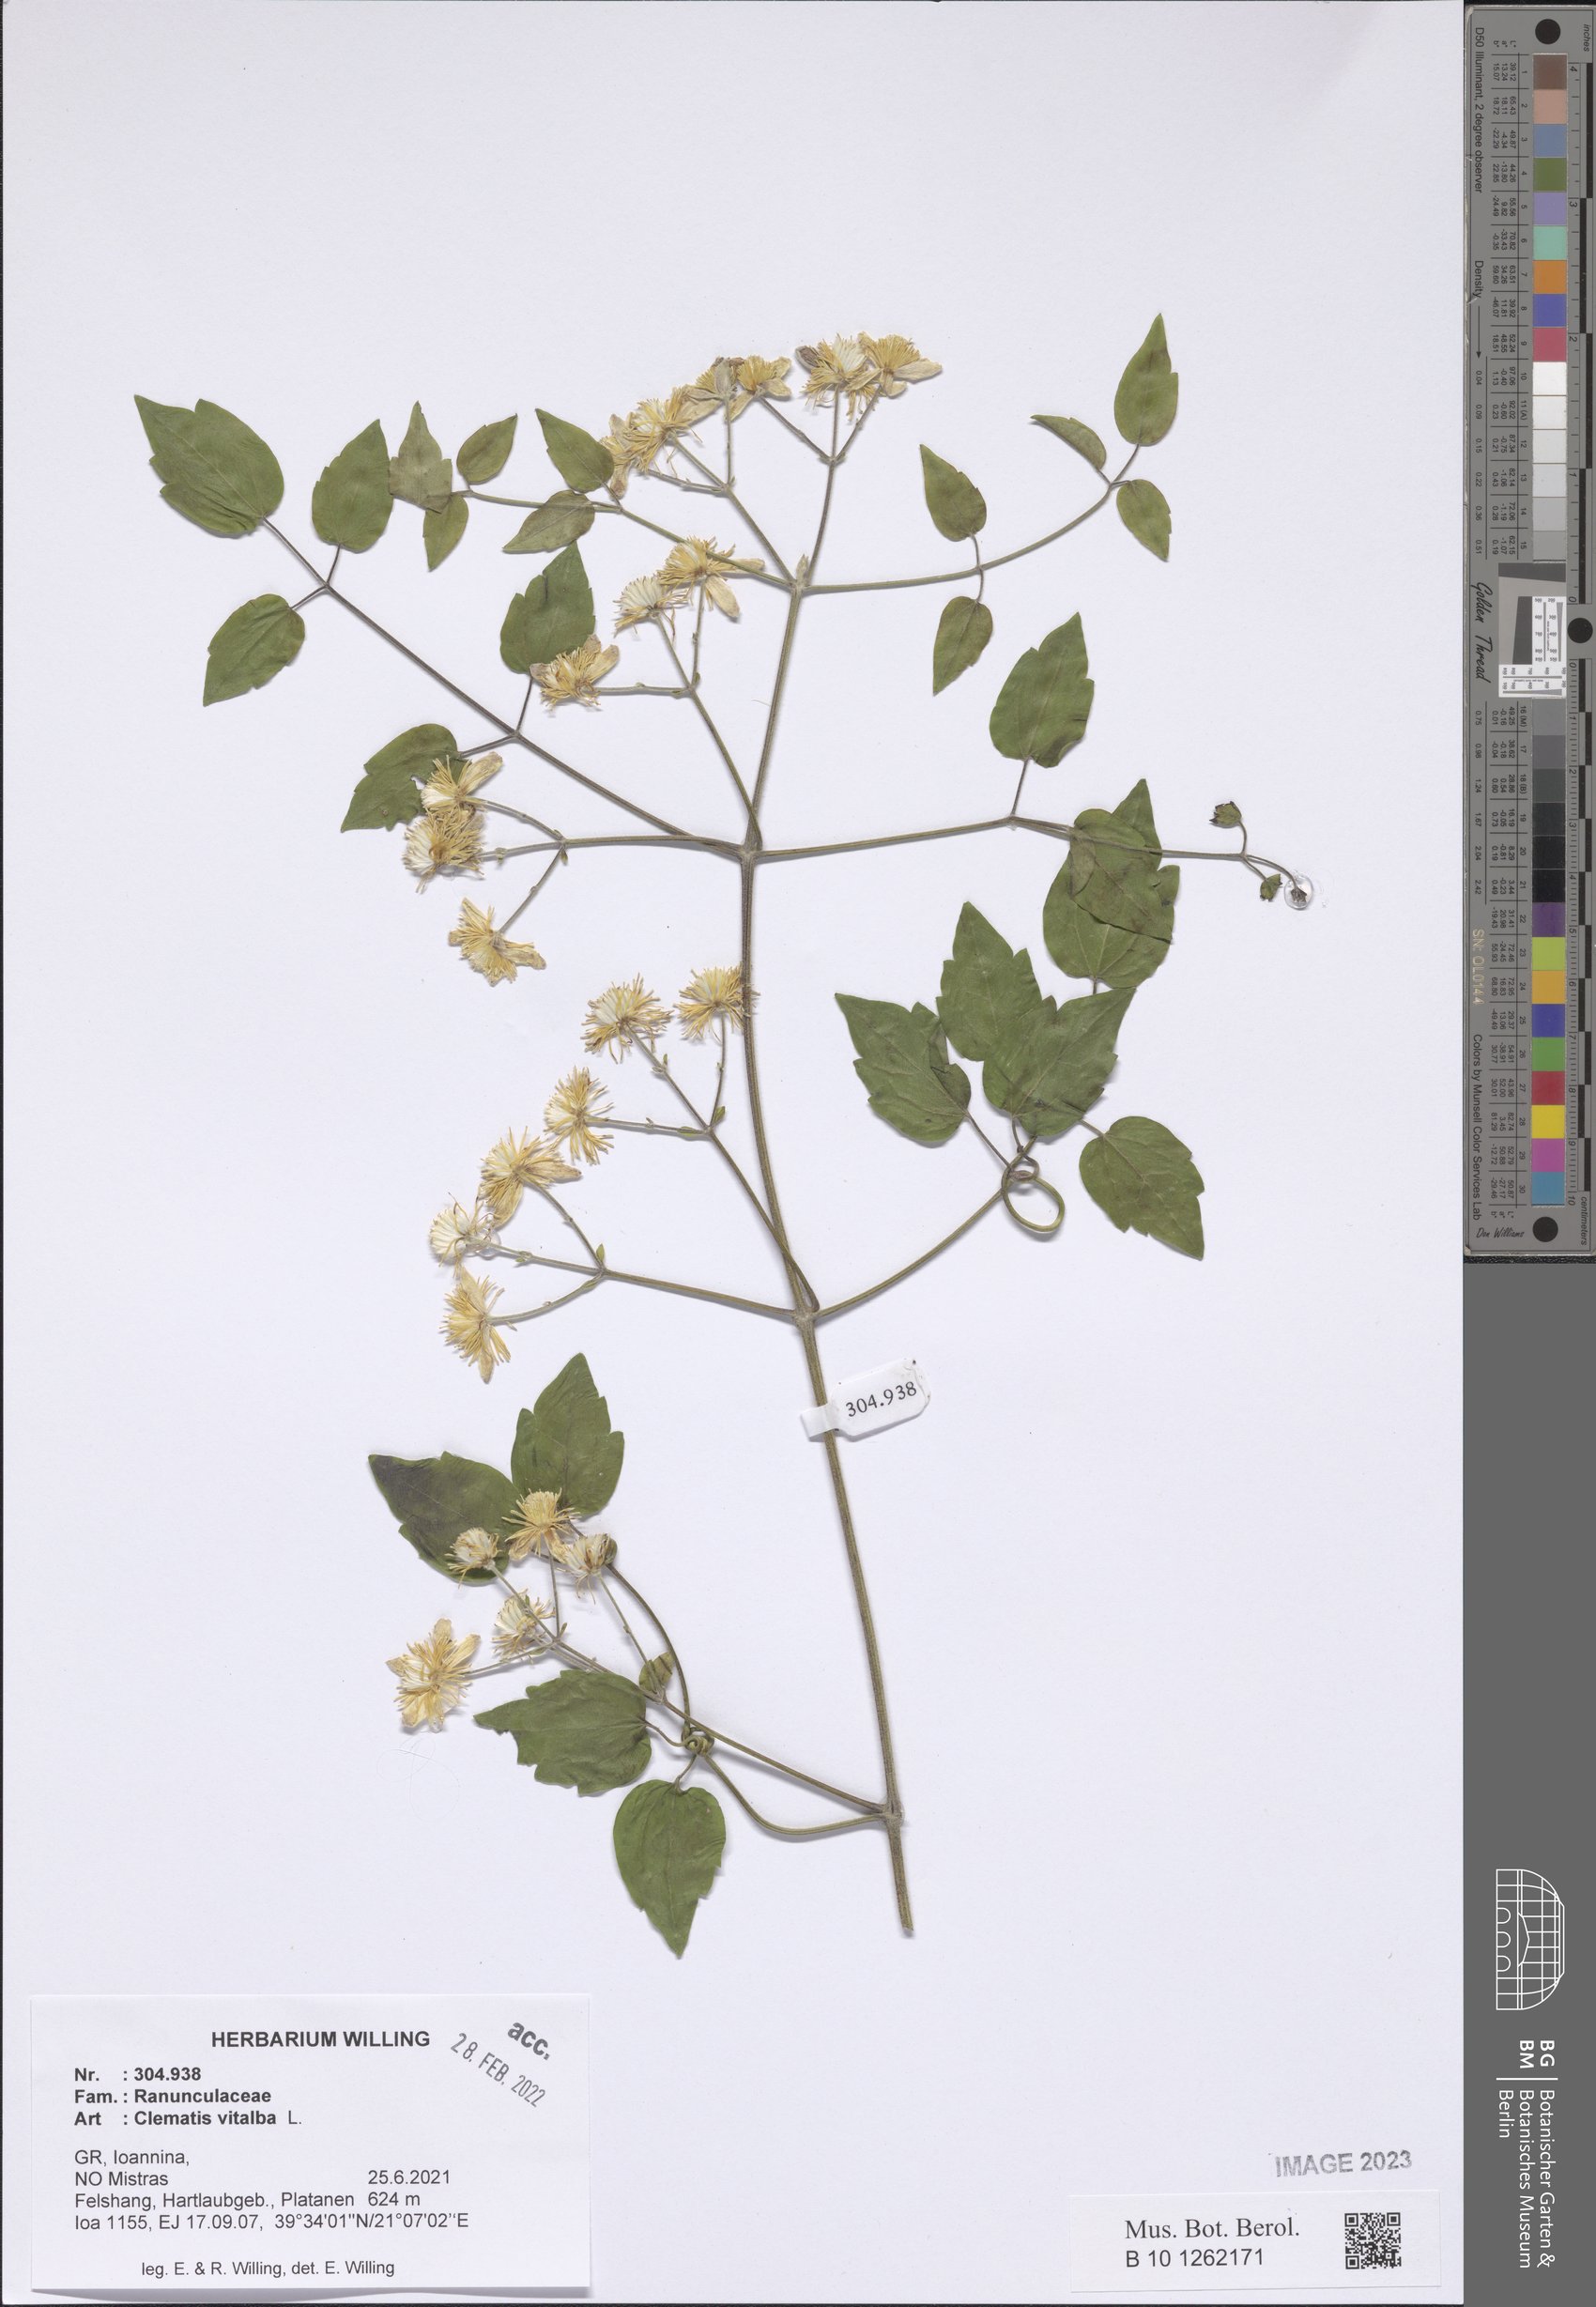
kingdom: Plantae
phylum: Tracheophyta
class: Magnoliopsida
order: Ranunculales
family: Ranunculaceae
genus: Clematis
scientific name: Clematis vitalba
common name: Evergreen clematis
